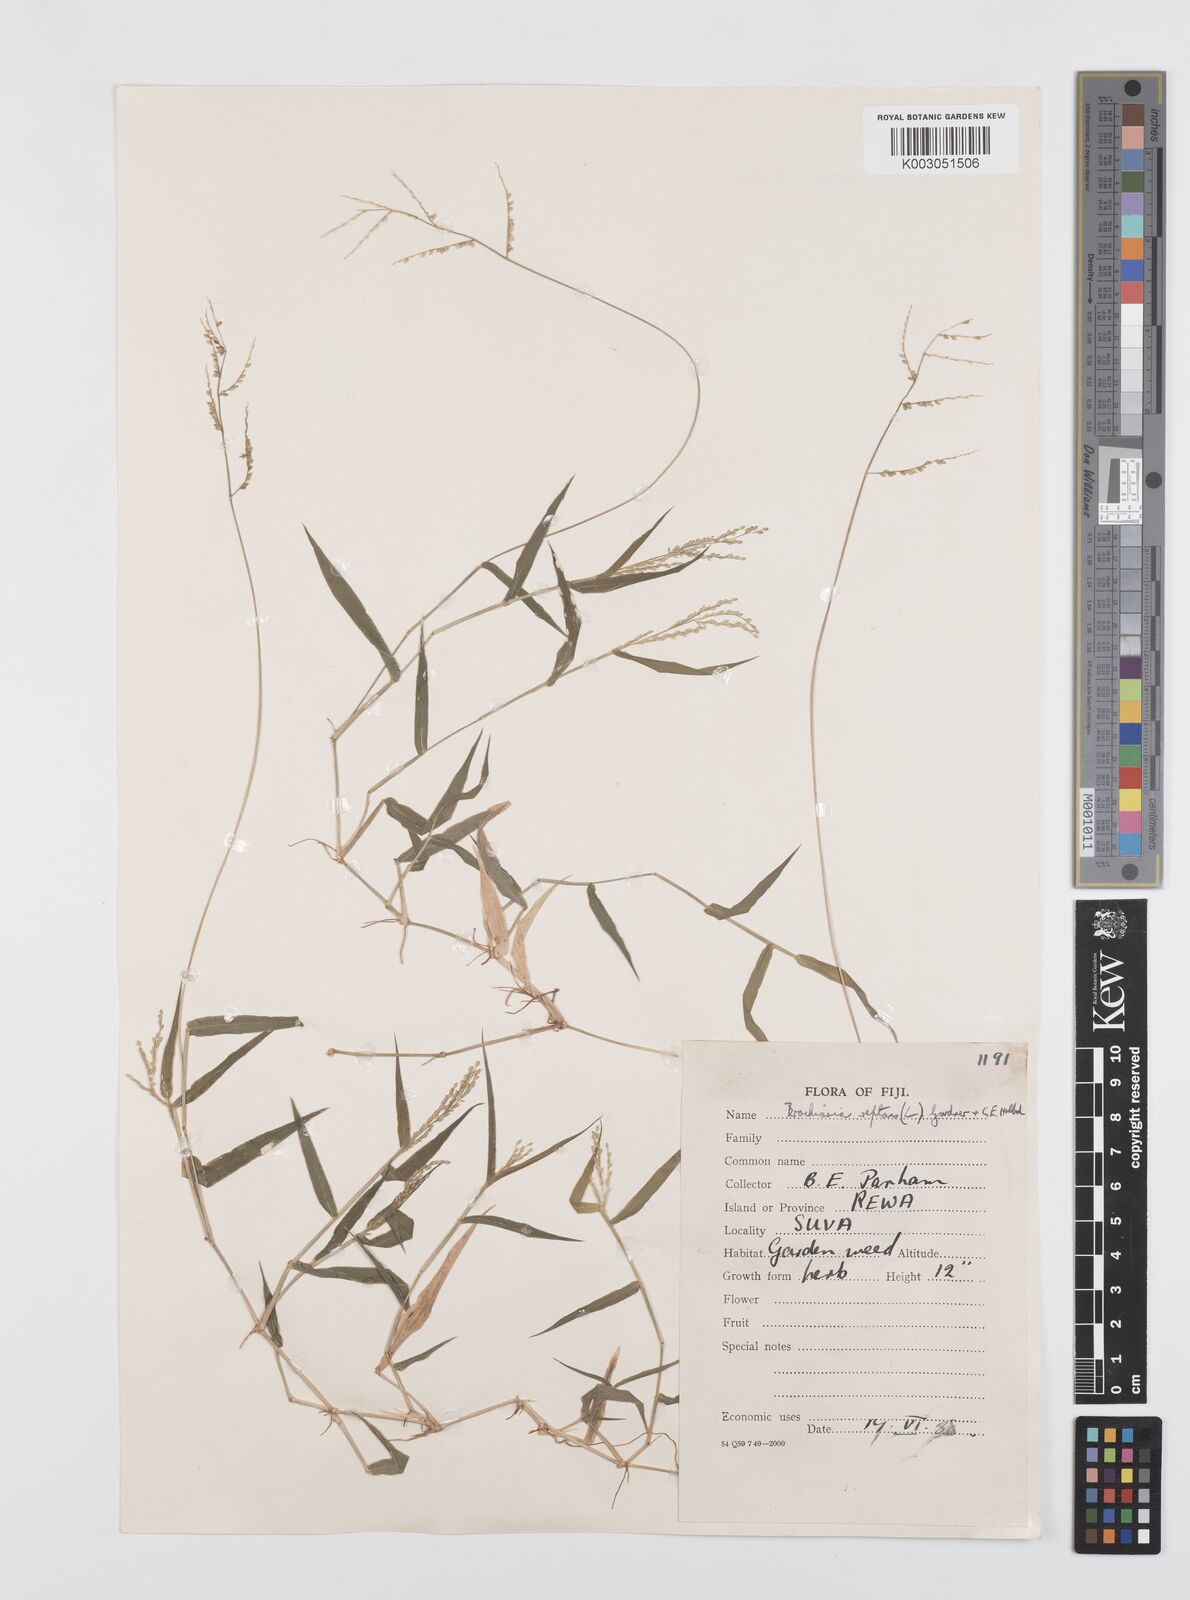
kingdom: Plantae
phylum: Tracheophyta
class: Liliopsida
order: Poales
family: Poaceae
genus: Urochloa
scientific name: Urochloa reptans
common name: Sprawling signalgrass
